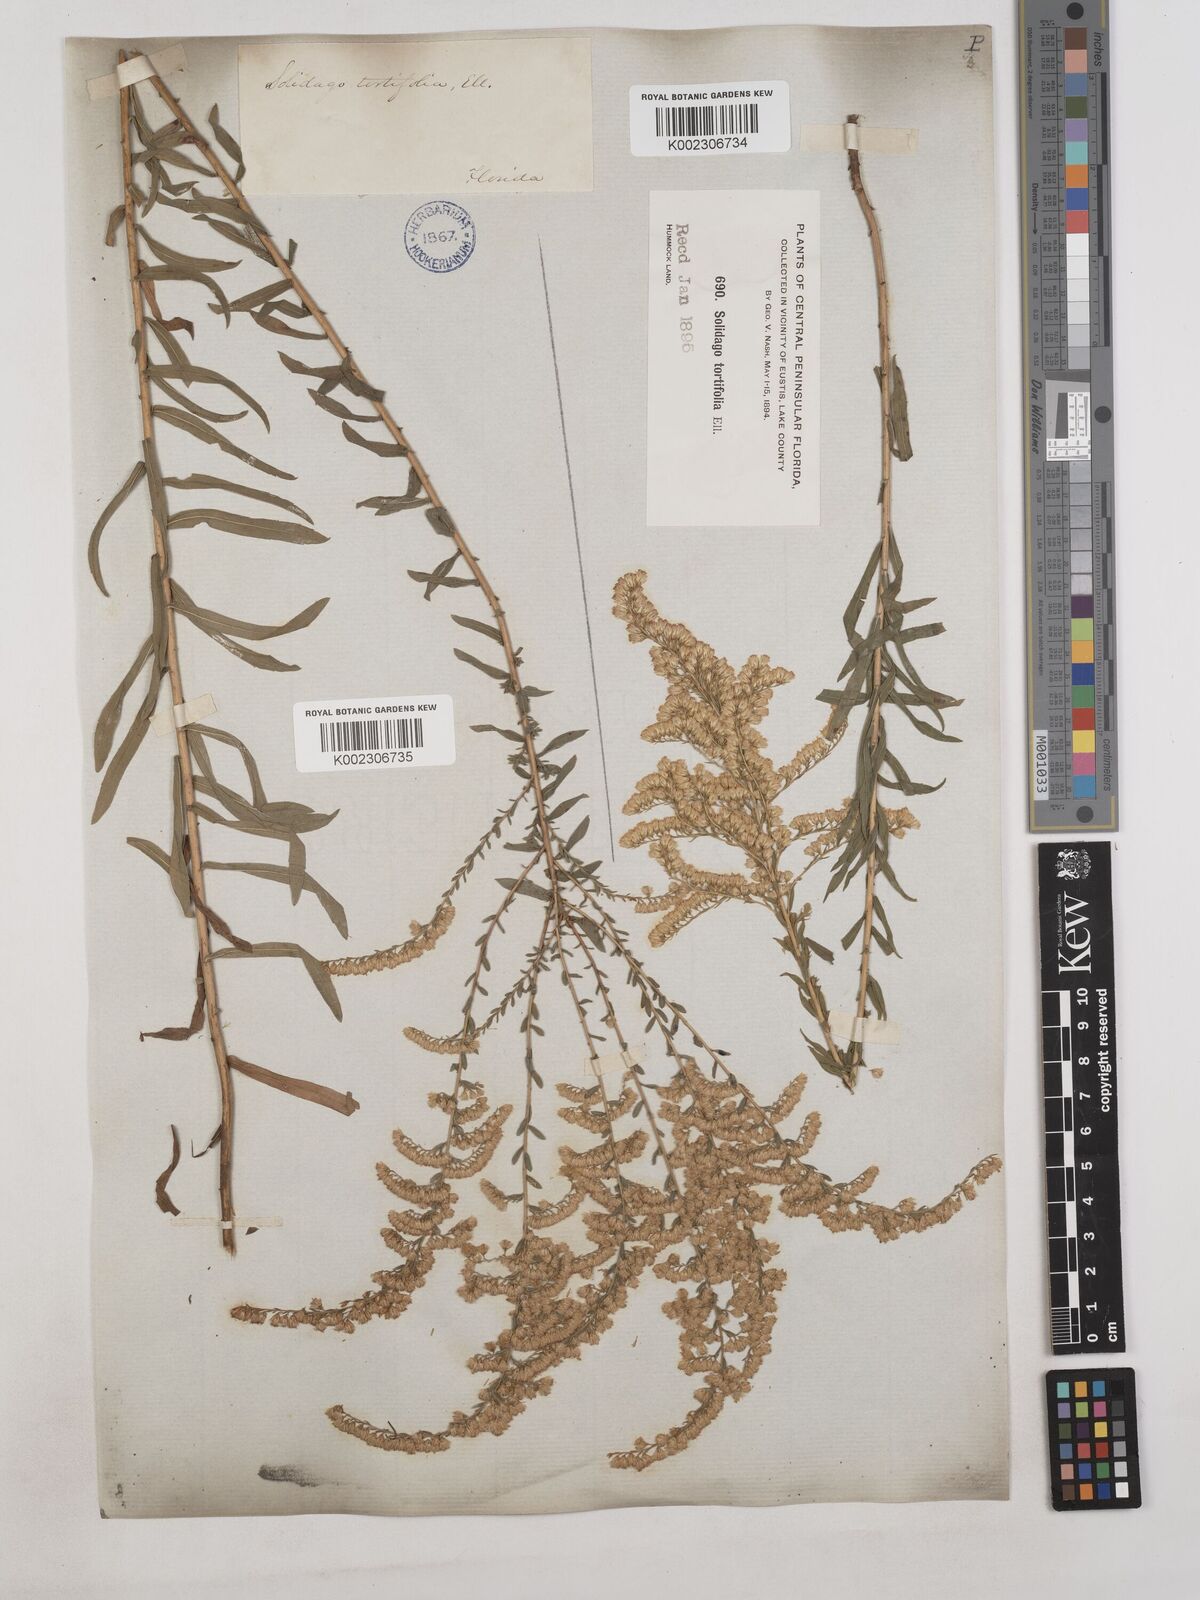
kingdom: Plantae
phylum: Tracheophyta
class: Magnoliopsida
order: Asterales
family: Asteraceae
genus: Solidago
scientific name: Solidago tortifolia
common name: Twisted-leaf goldenrod
